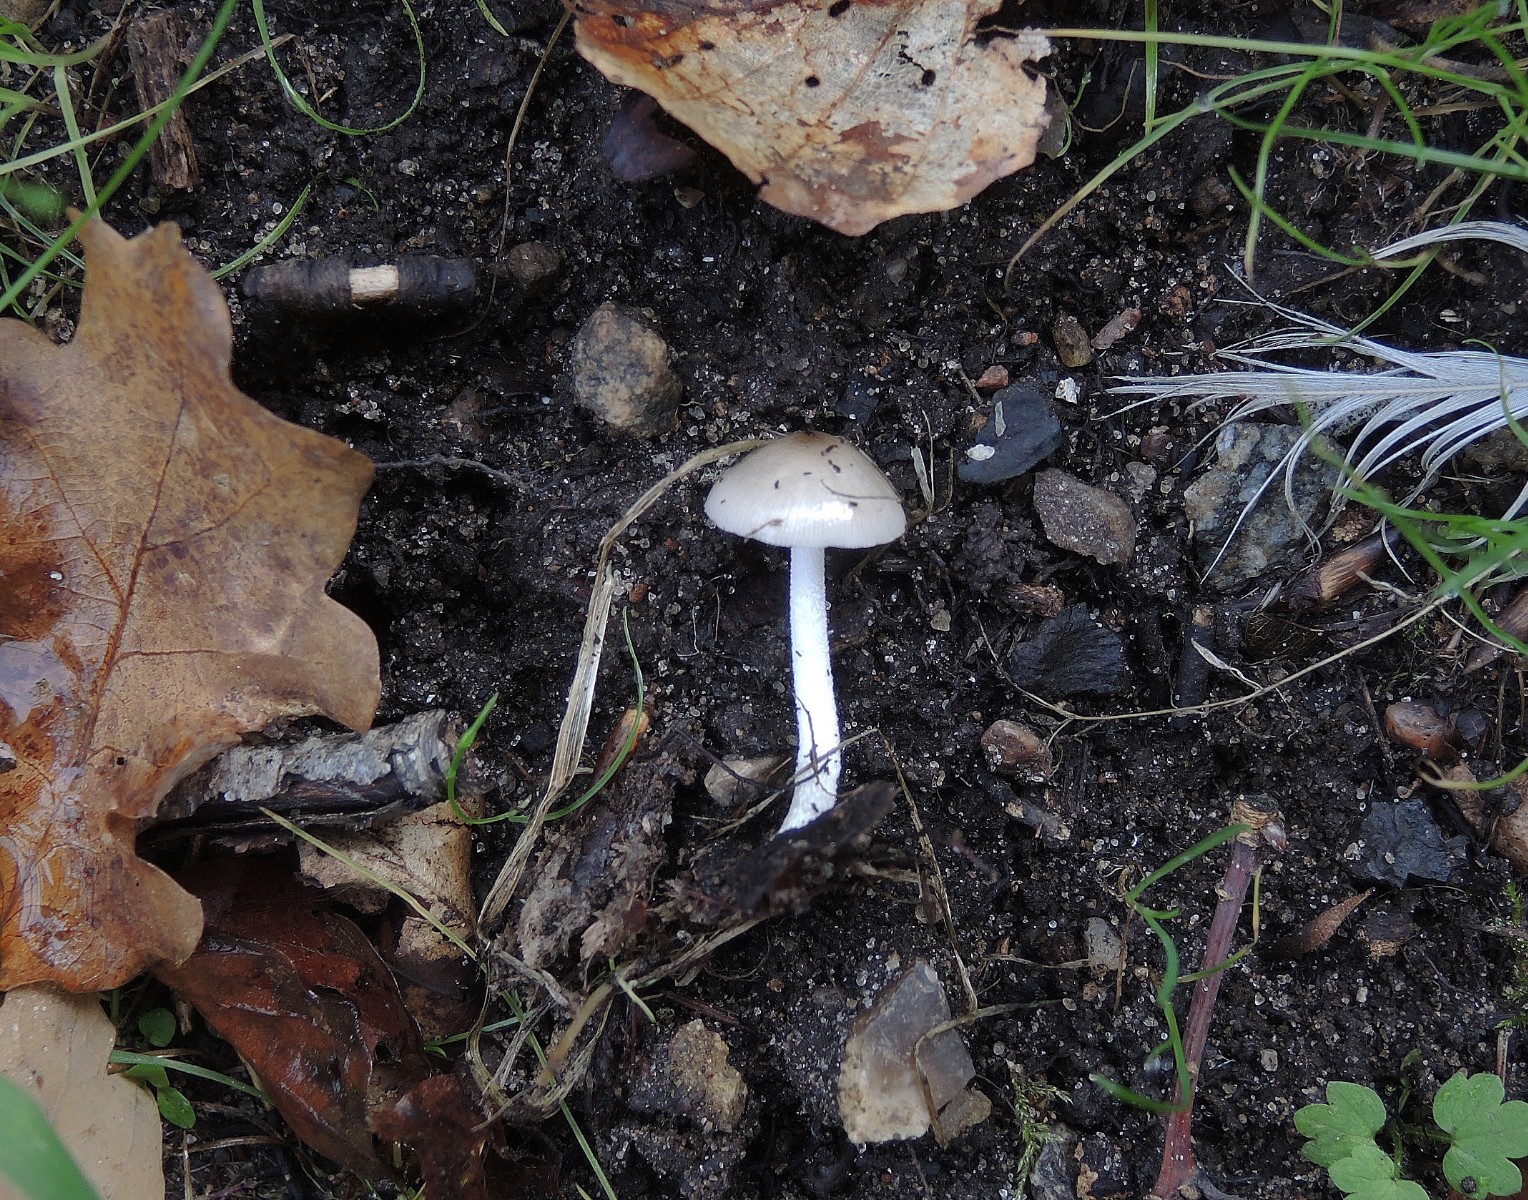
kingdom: Fungi
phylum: Basidiomycota
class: Agaricomycetes
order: Agaricales
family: Bolbitiaceae
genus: Bolbitius
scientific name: Bolbitius reticulatus
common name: Netted fieldcap
